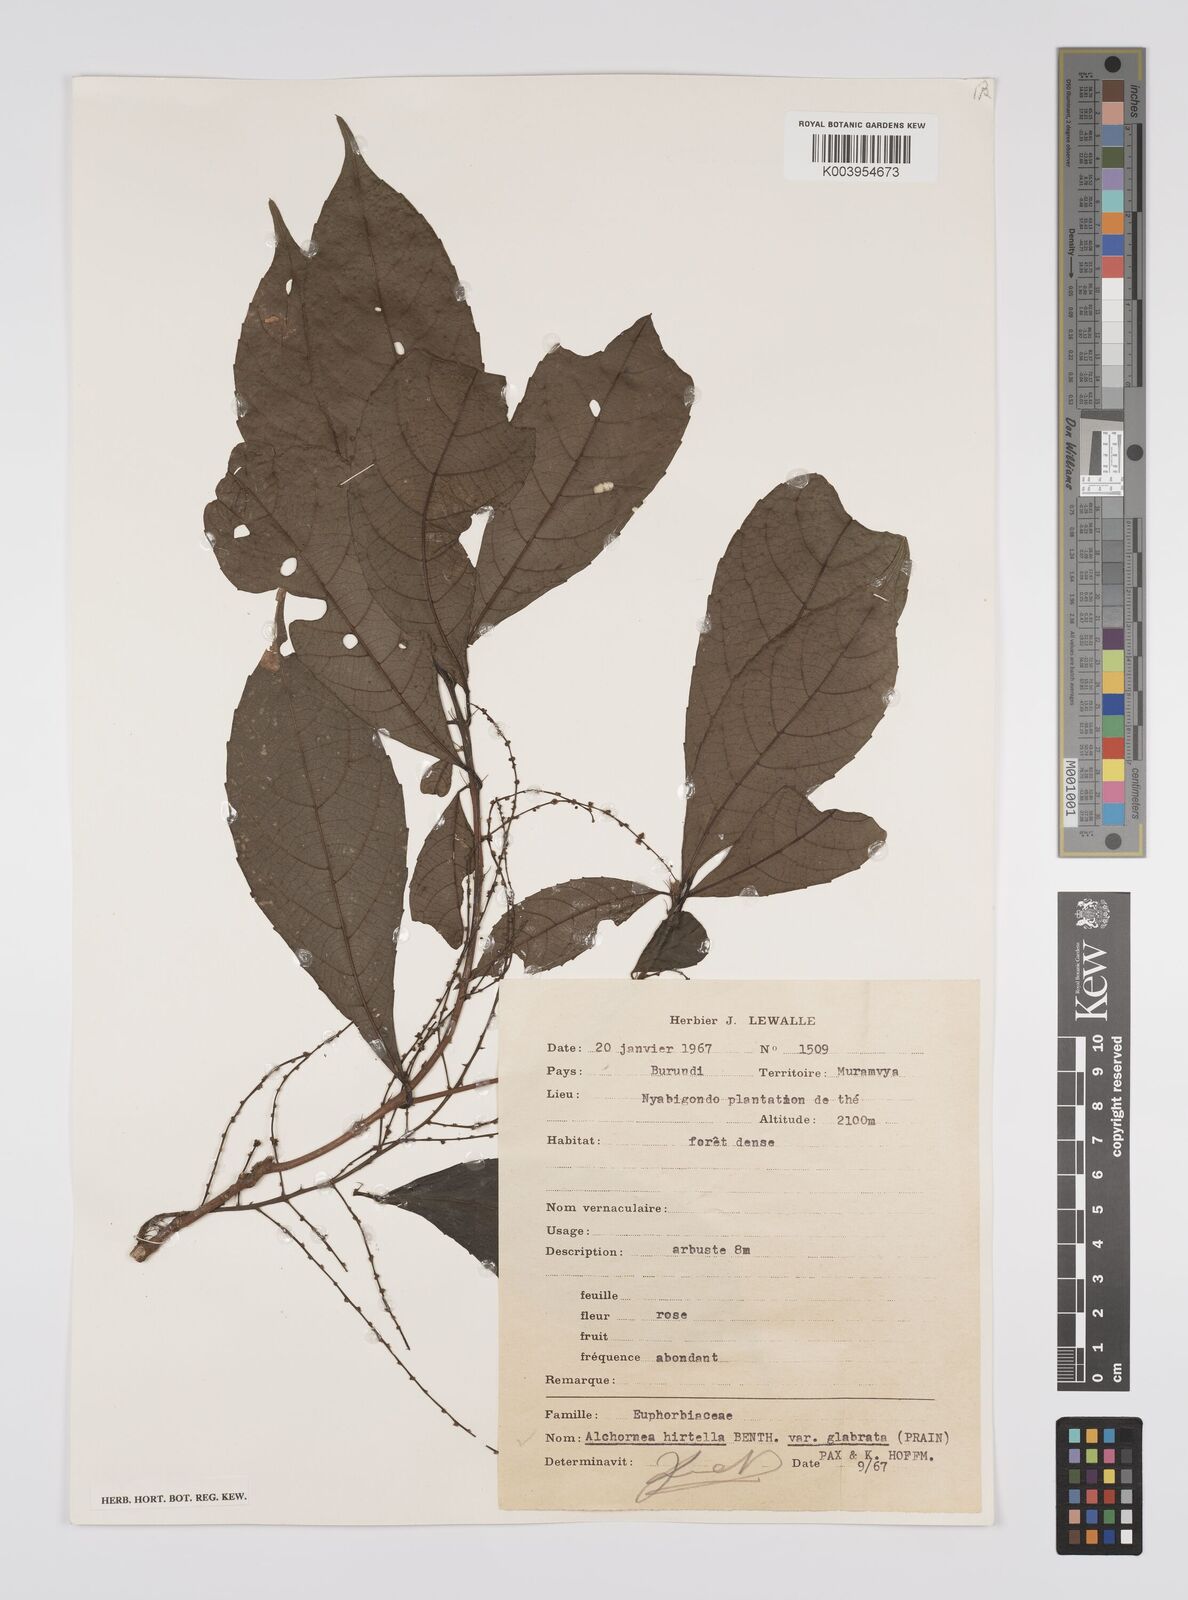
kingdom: Plantae
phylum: Tracheophyta
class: Magnoliopsida
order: Malpighiales
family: Euphorbiaceae
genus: Alchornea
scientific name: Alchornea hirtella
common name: Forest bead-string
